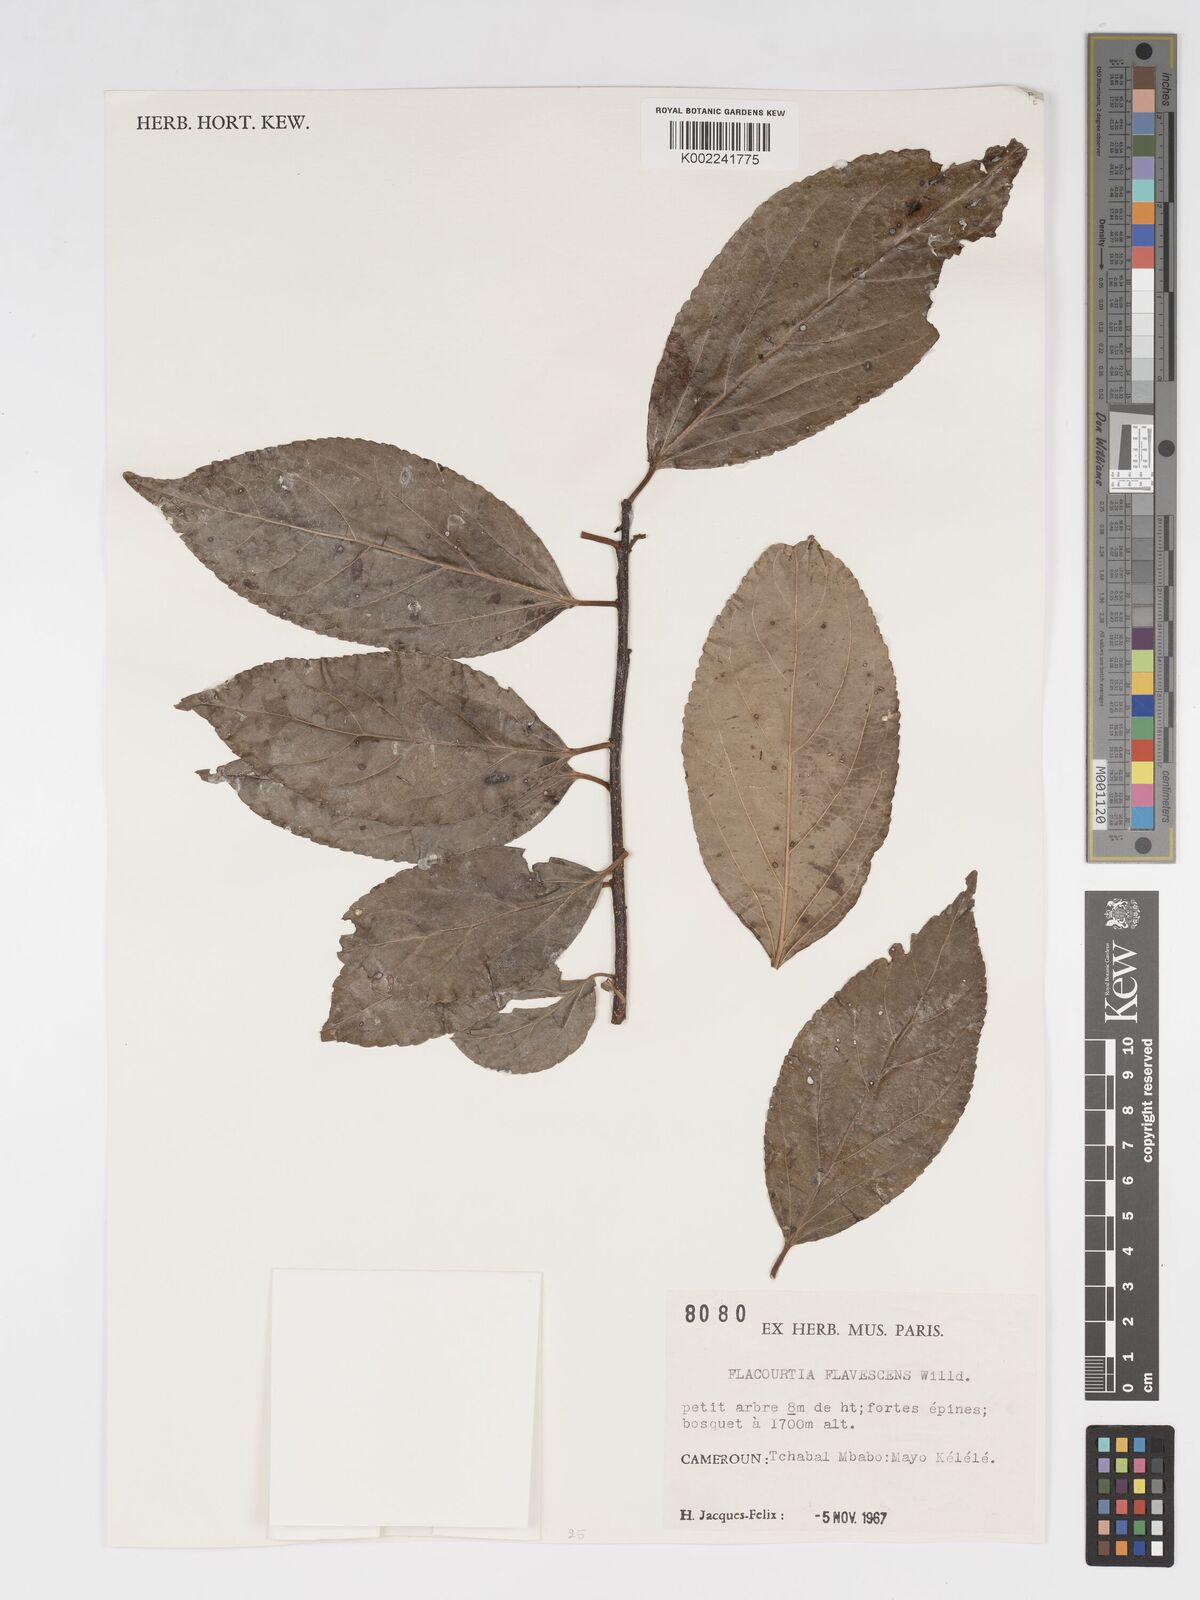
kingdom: Plantae
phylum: Tracheophyta
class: Magnoliopsida
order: Malpighiales
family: Salicaceae
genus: Flacourtia
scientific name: Flacourtia indica
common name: Governor's plum
